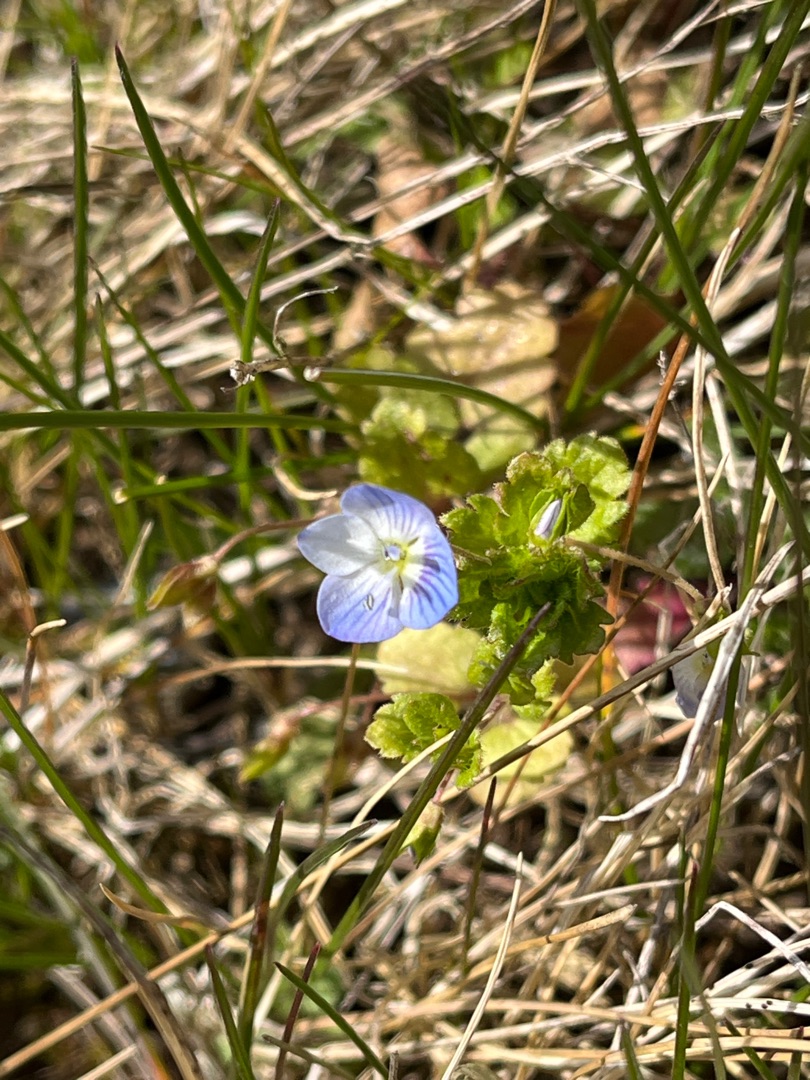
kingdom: Plantae
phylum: Tracheophyta
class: Magnoliopsida
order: Lamiales
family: Plantaginaceae
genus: Veronica
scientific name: Veronica persica
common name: Storkronet ærenpris
